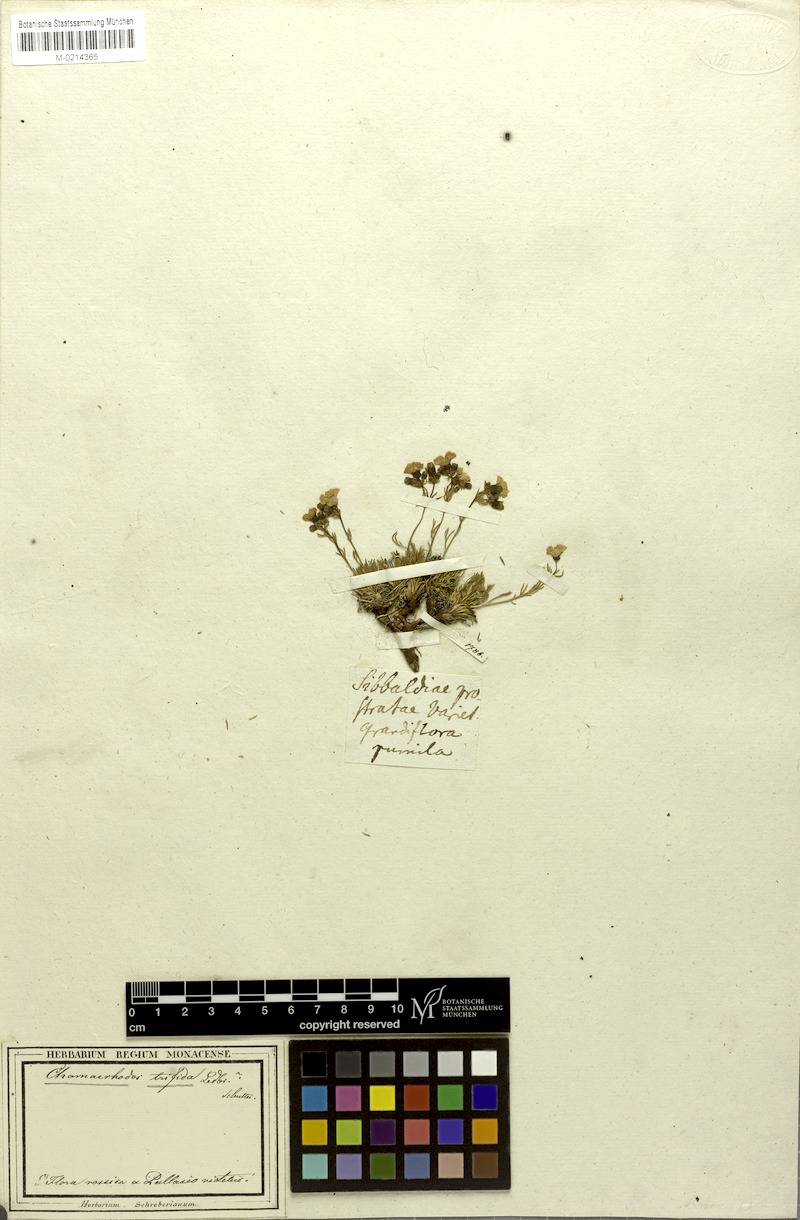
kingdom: Plantae
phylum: Tracheophyta
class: Magnoliopsida
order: Rosales
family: Rosaceae
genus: Chamaerhodos
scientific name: Chamaerhodos grandiflora
